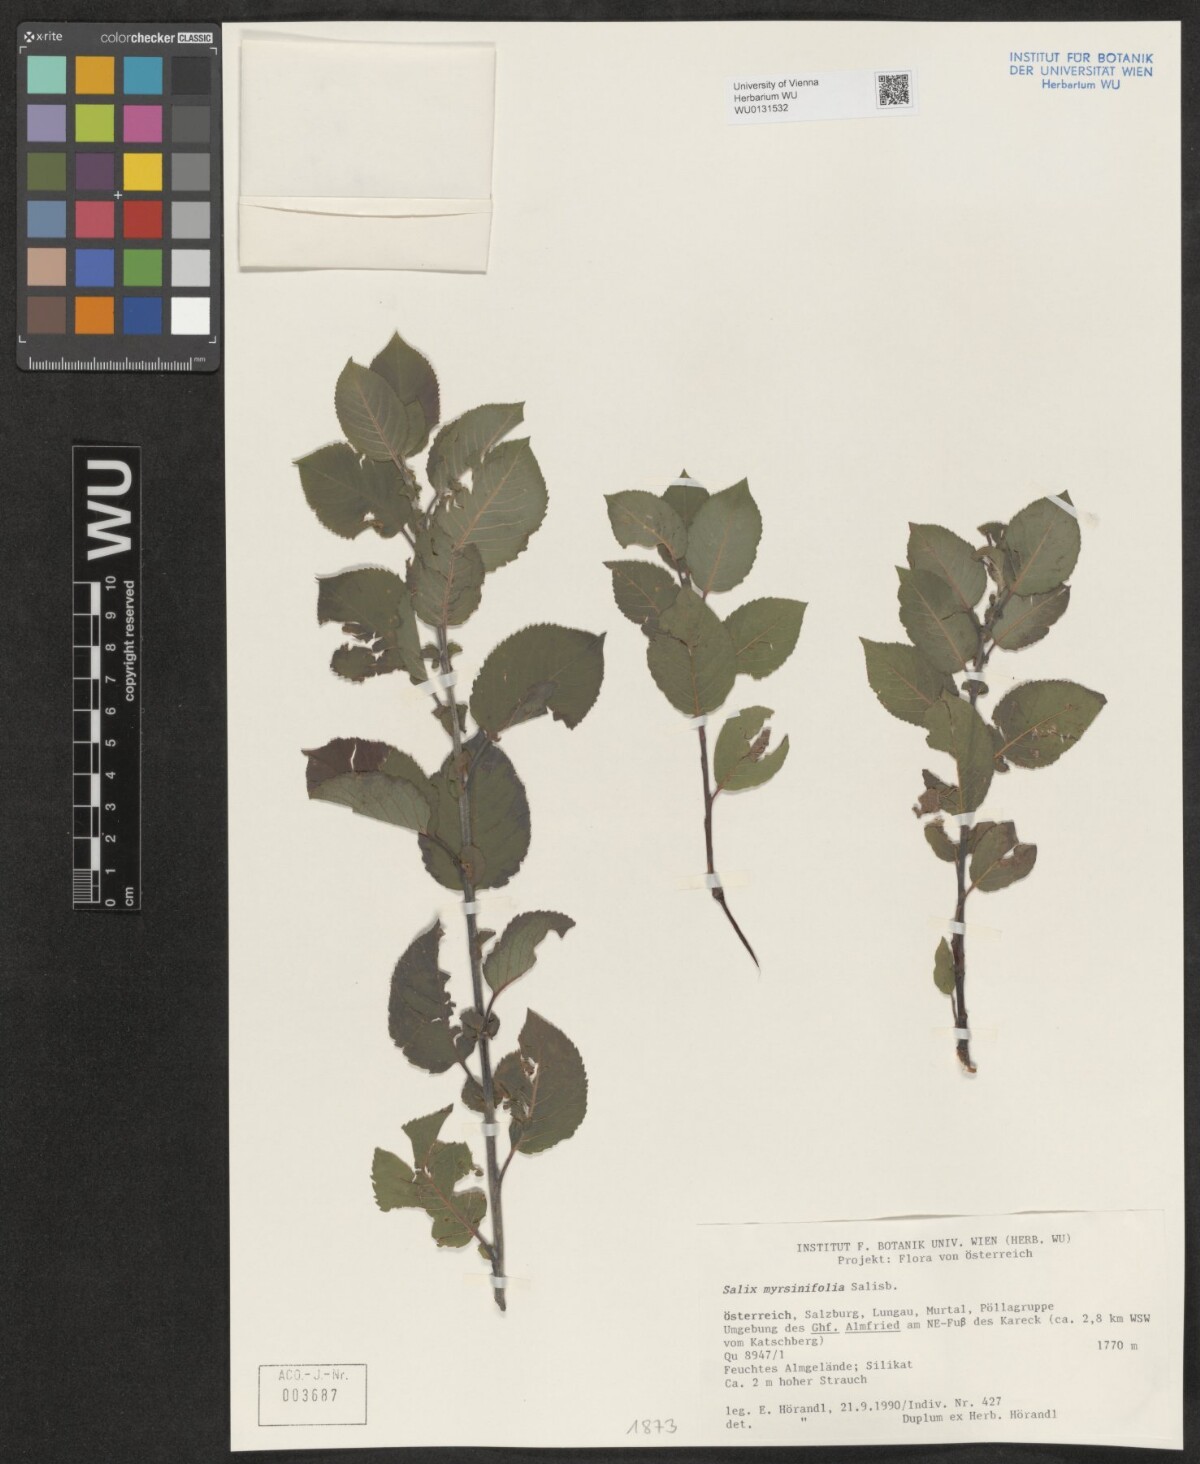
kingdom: Plantae
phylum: Tracheophyta
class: Magnoliopsida
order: Malpighiales
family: Salicaceae
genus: Salix
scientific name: Salix myrsinifolia
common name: Dark-leaved willow
